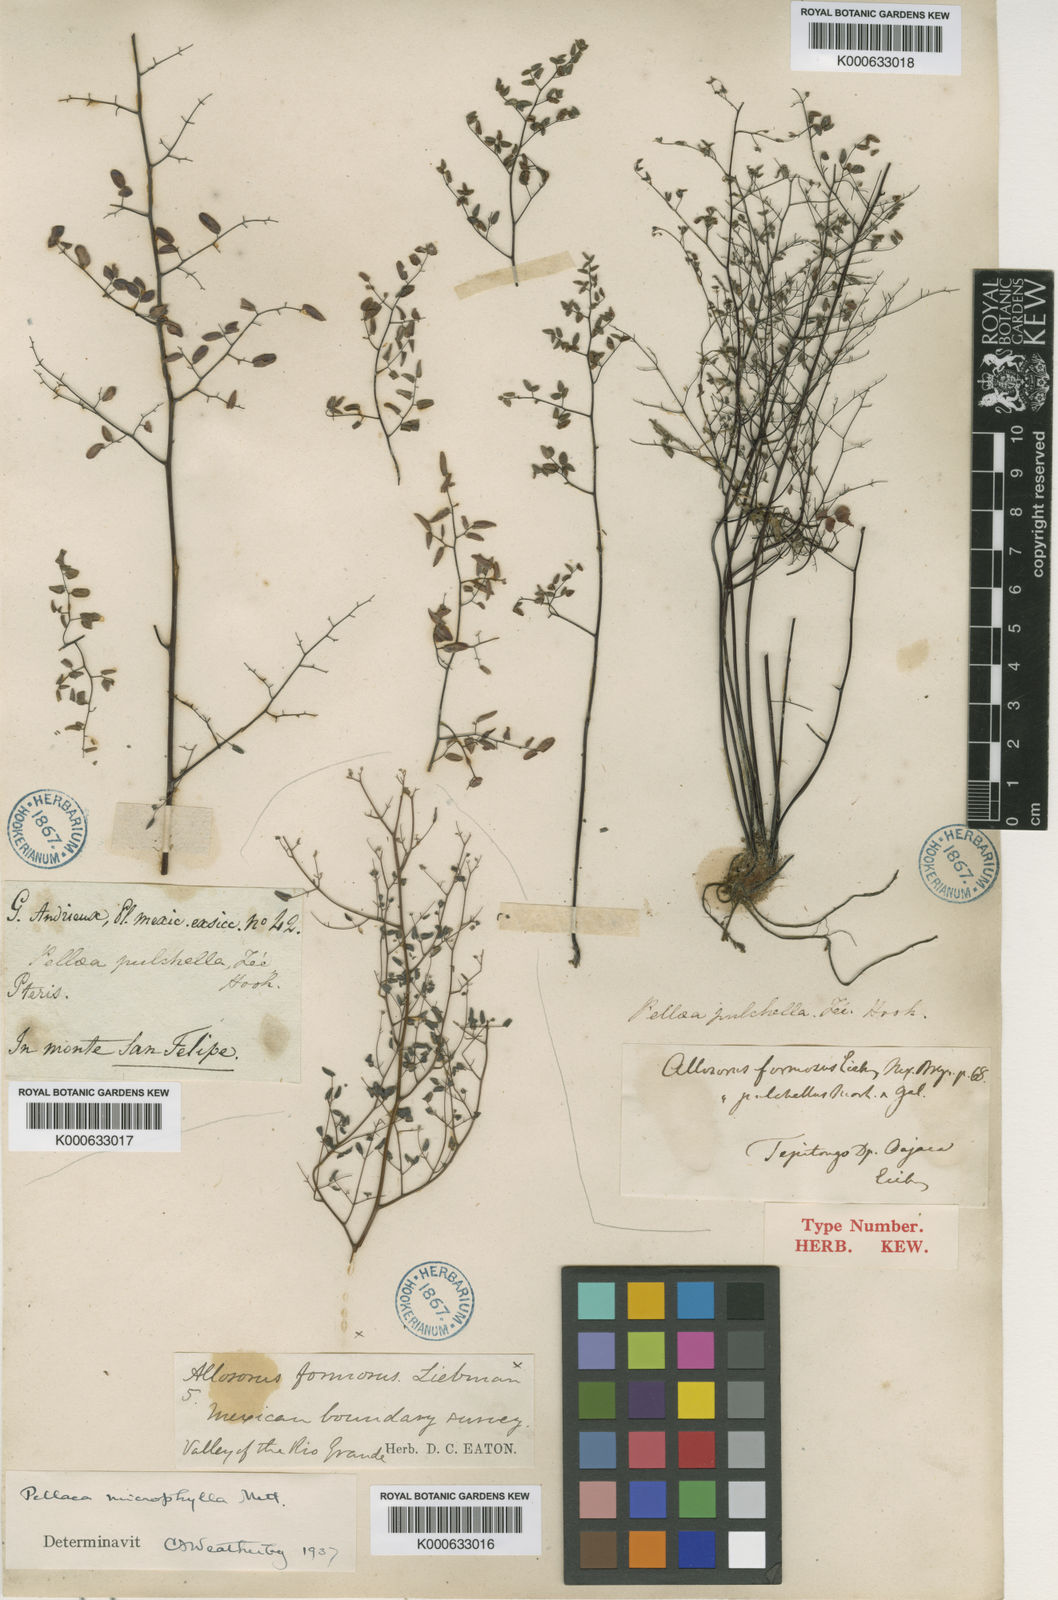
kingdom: Plantae
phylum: Tracheophyta
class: Polypodiopsida
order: Polypodiales
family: Pteridaceae
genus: Argyrochosma
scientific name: Argyrochosma formosa
